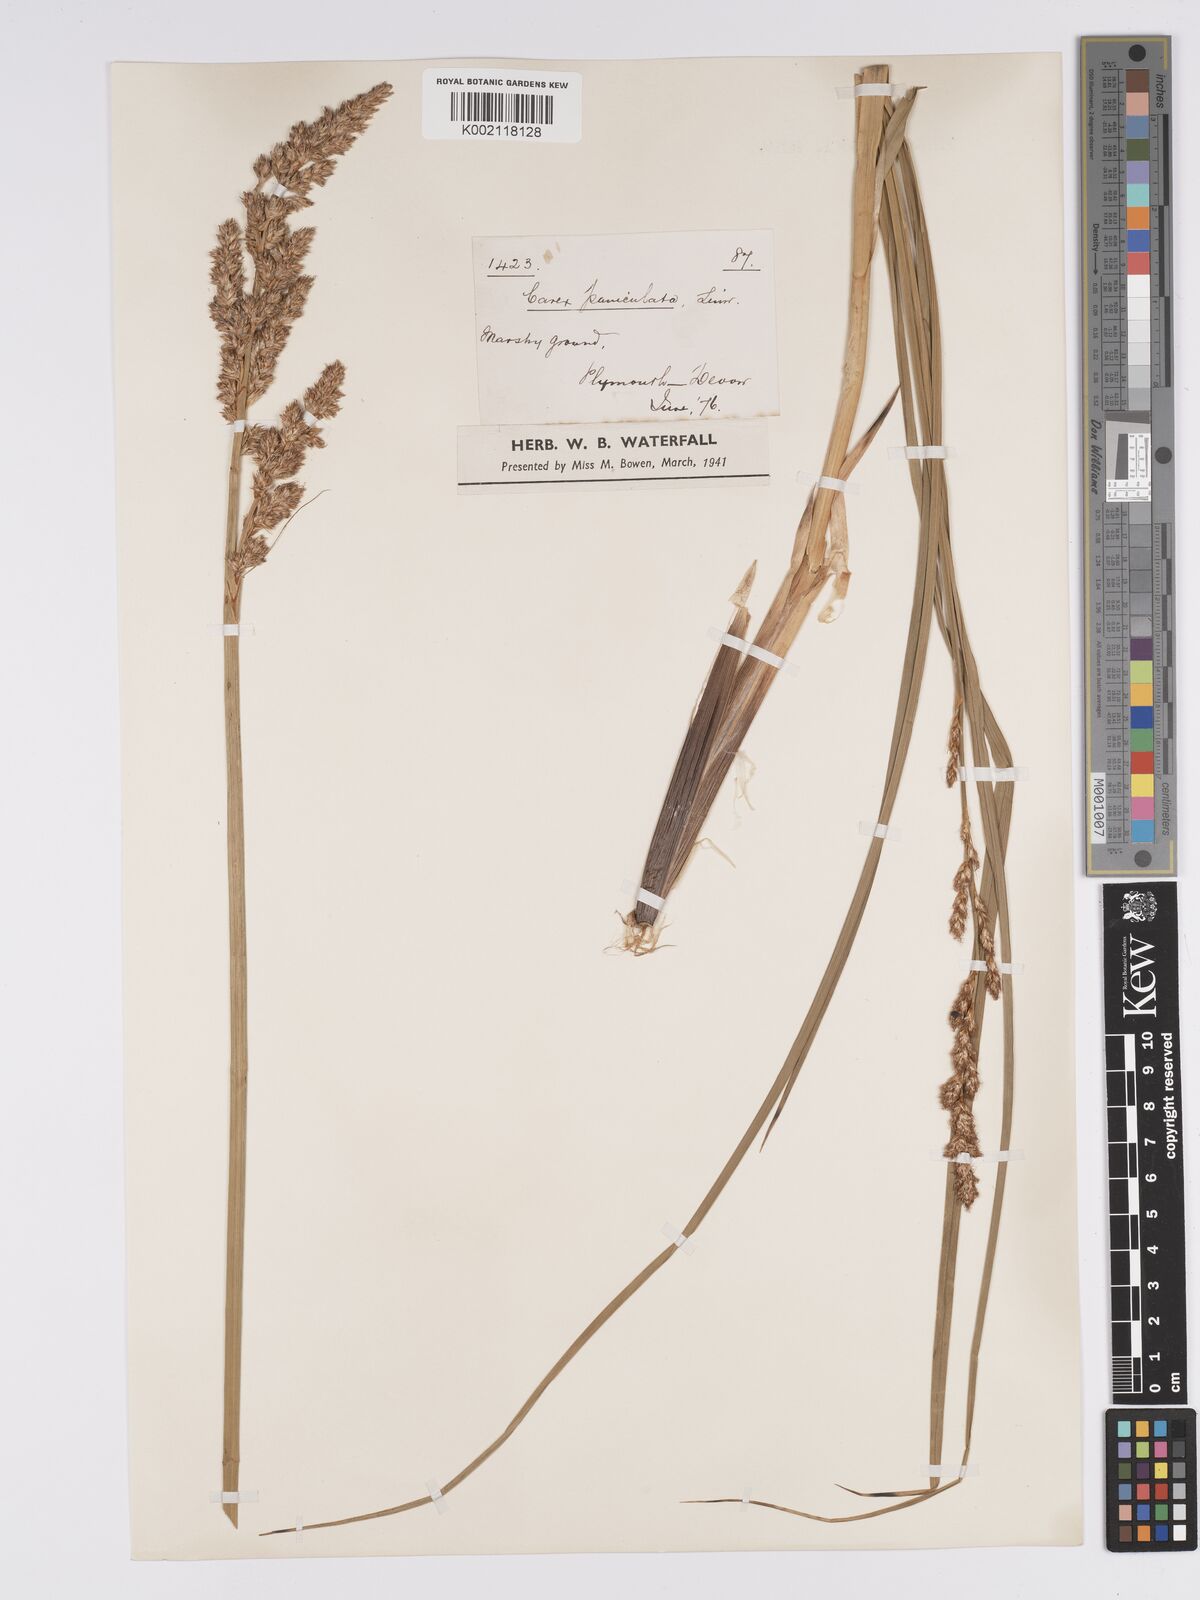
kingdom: Plantae
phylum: Tracheophyta
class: Liliopsida
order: Poales
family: Cyperaceae
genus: Carex
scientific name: Carex paniculata
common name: Greater tussock-sedge
